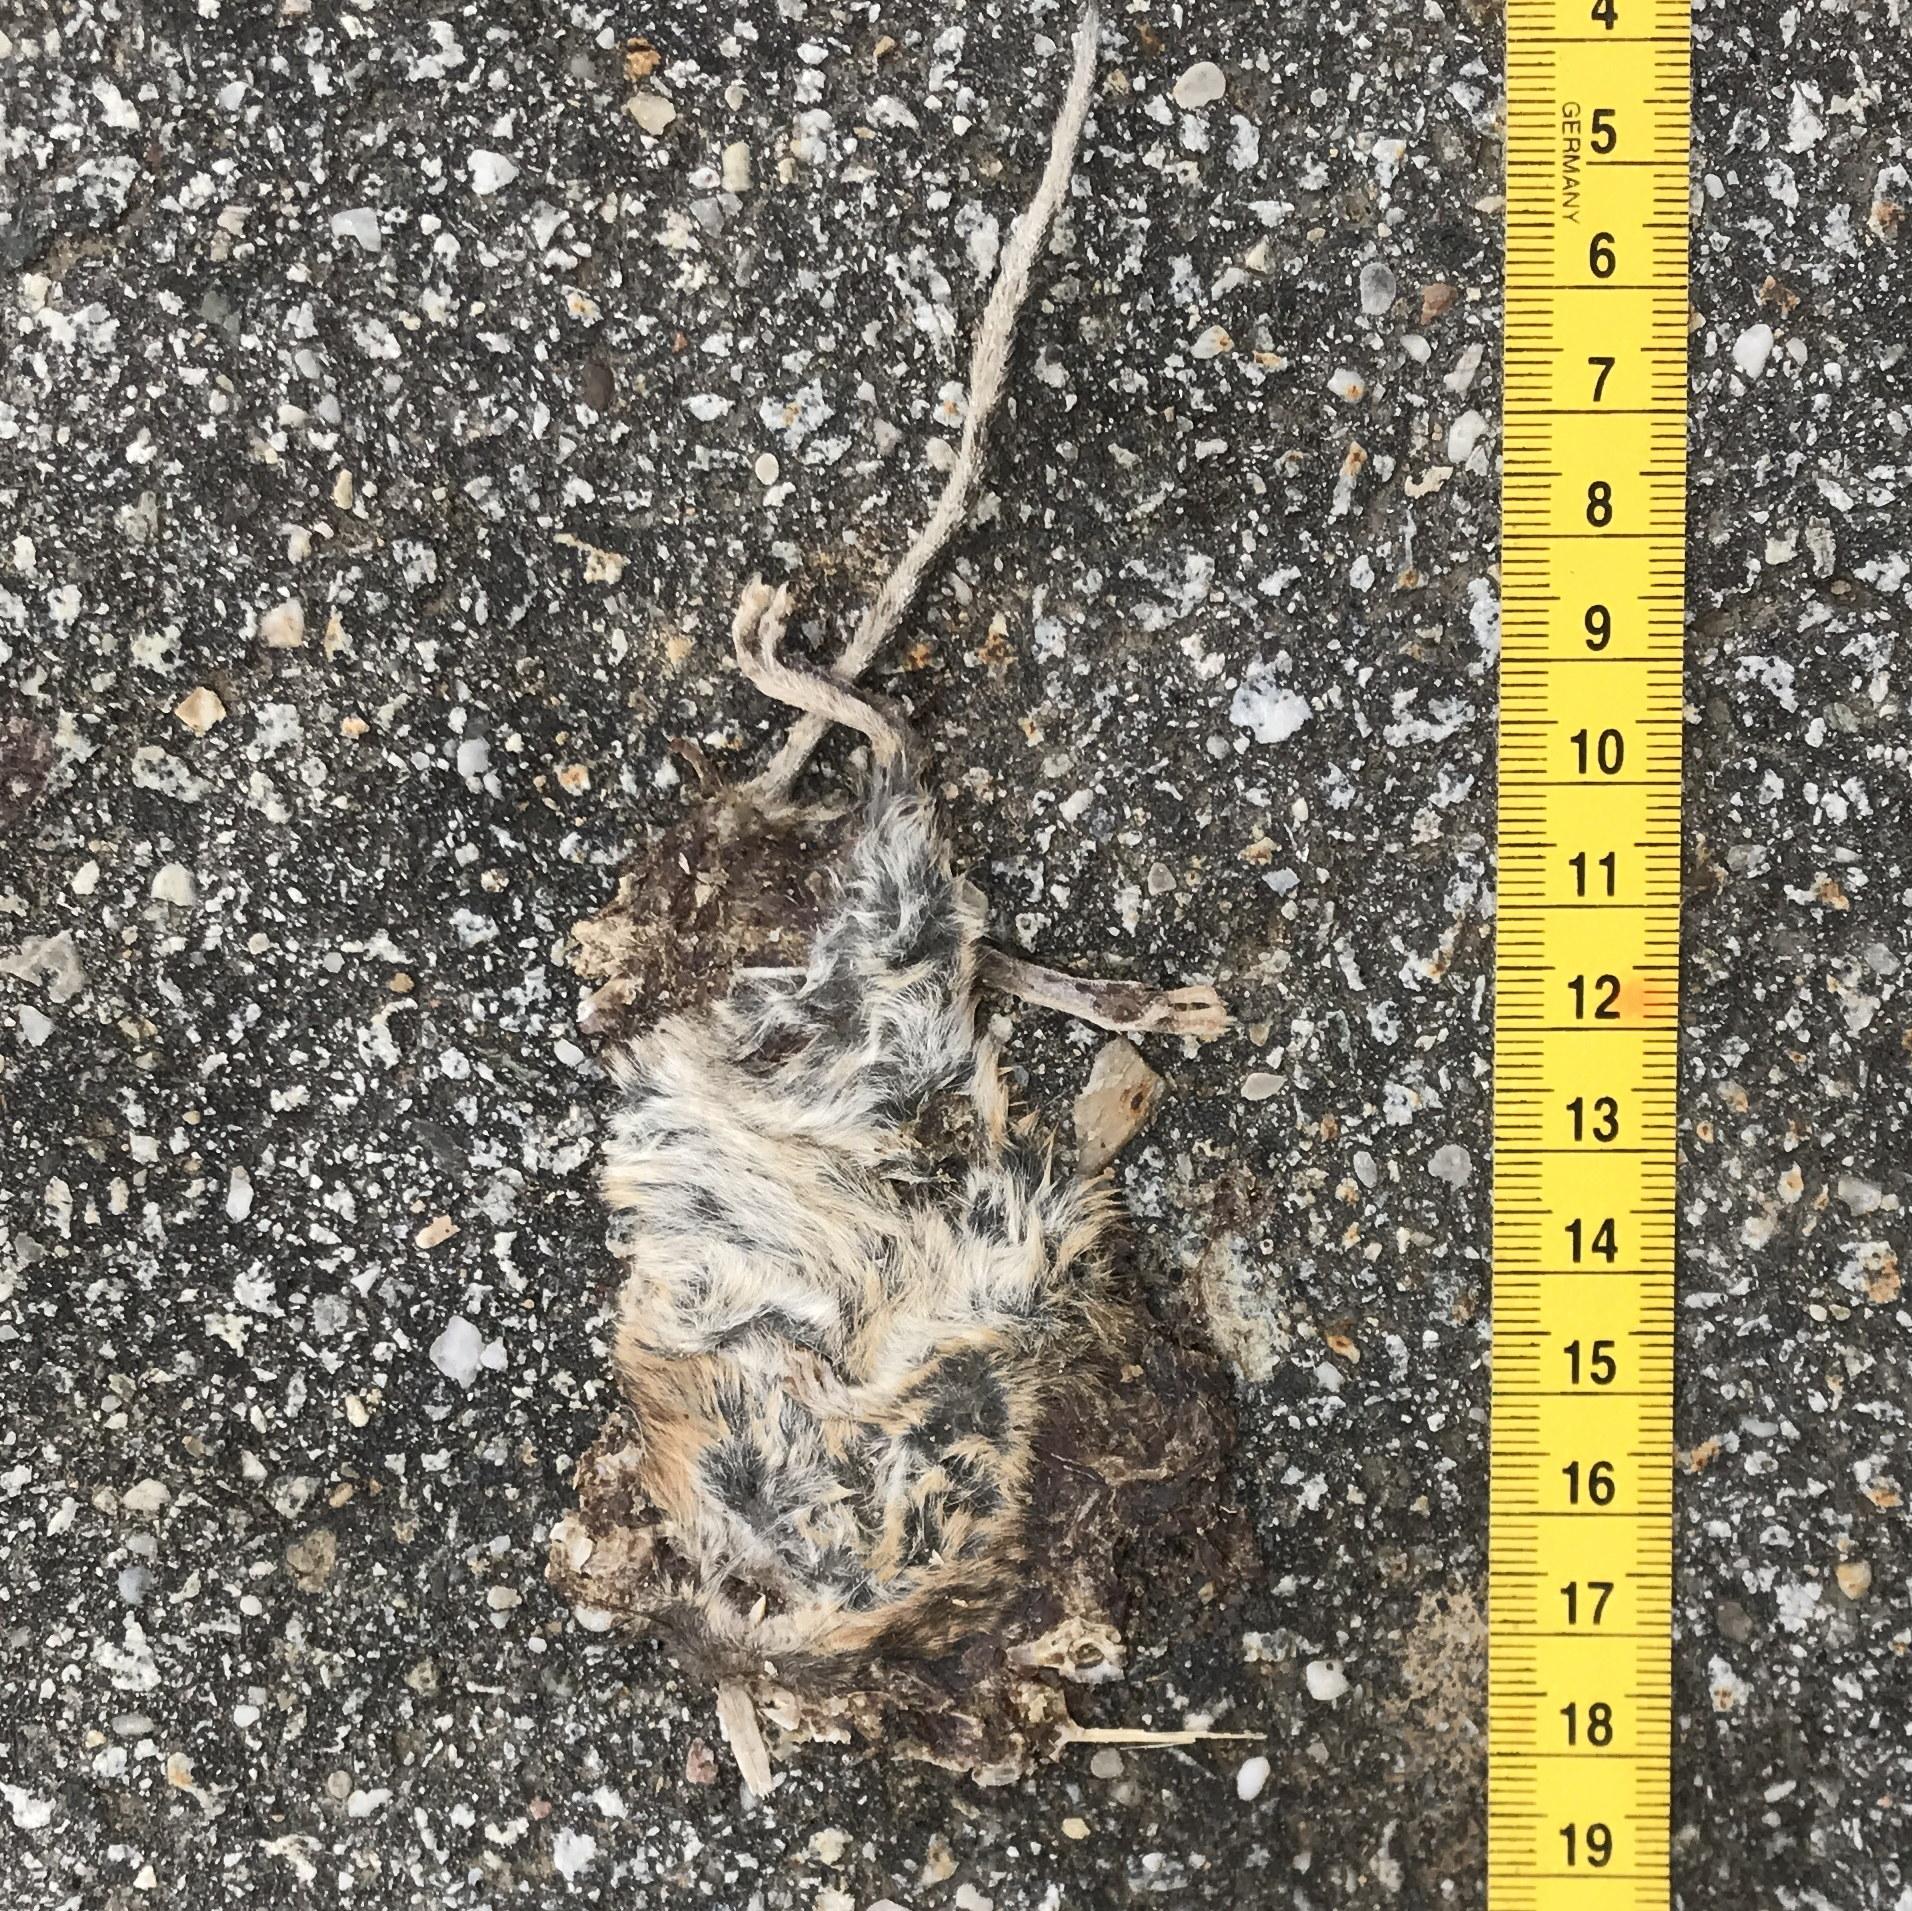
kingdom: Animalia
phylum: Chordata
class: Mammalia
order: Rodentia
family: Muridae
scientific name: Muridae
